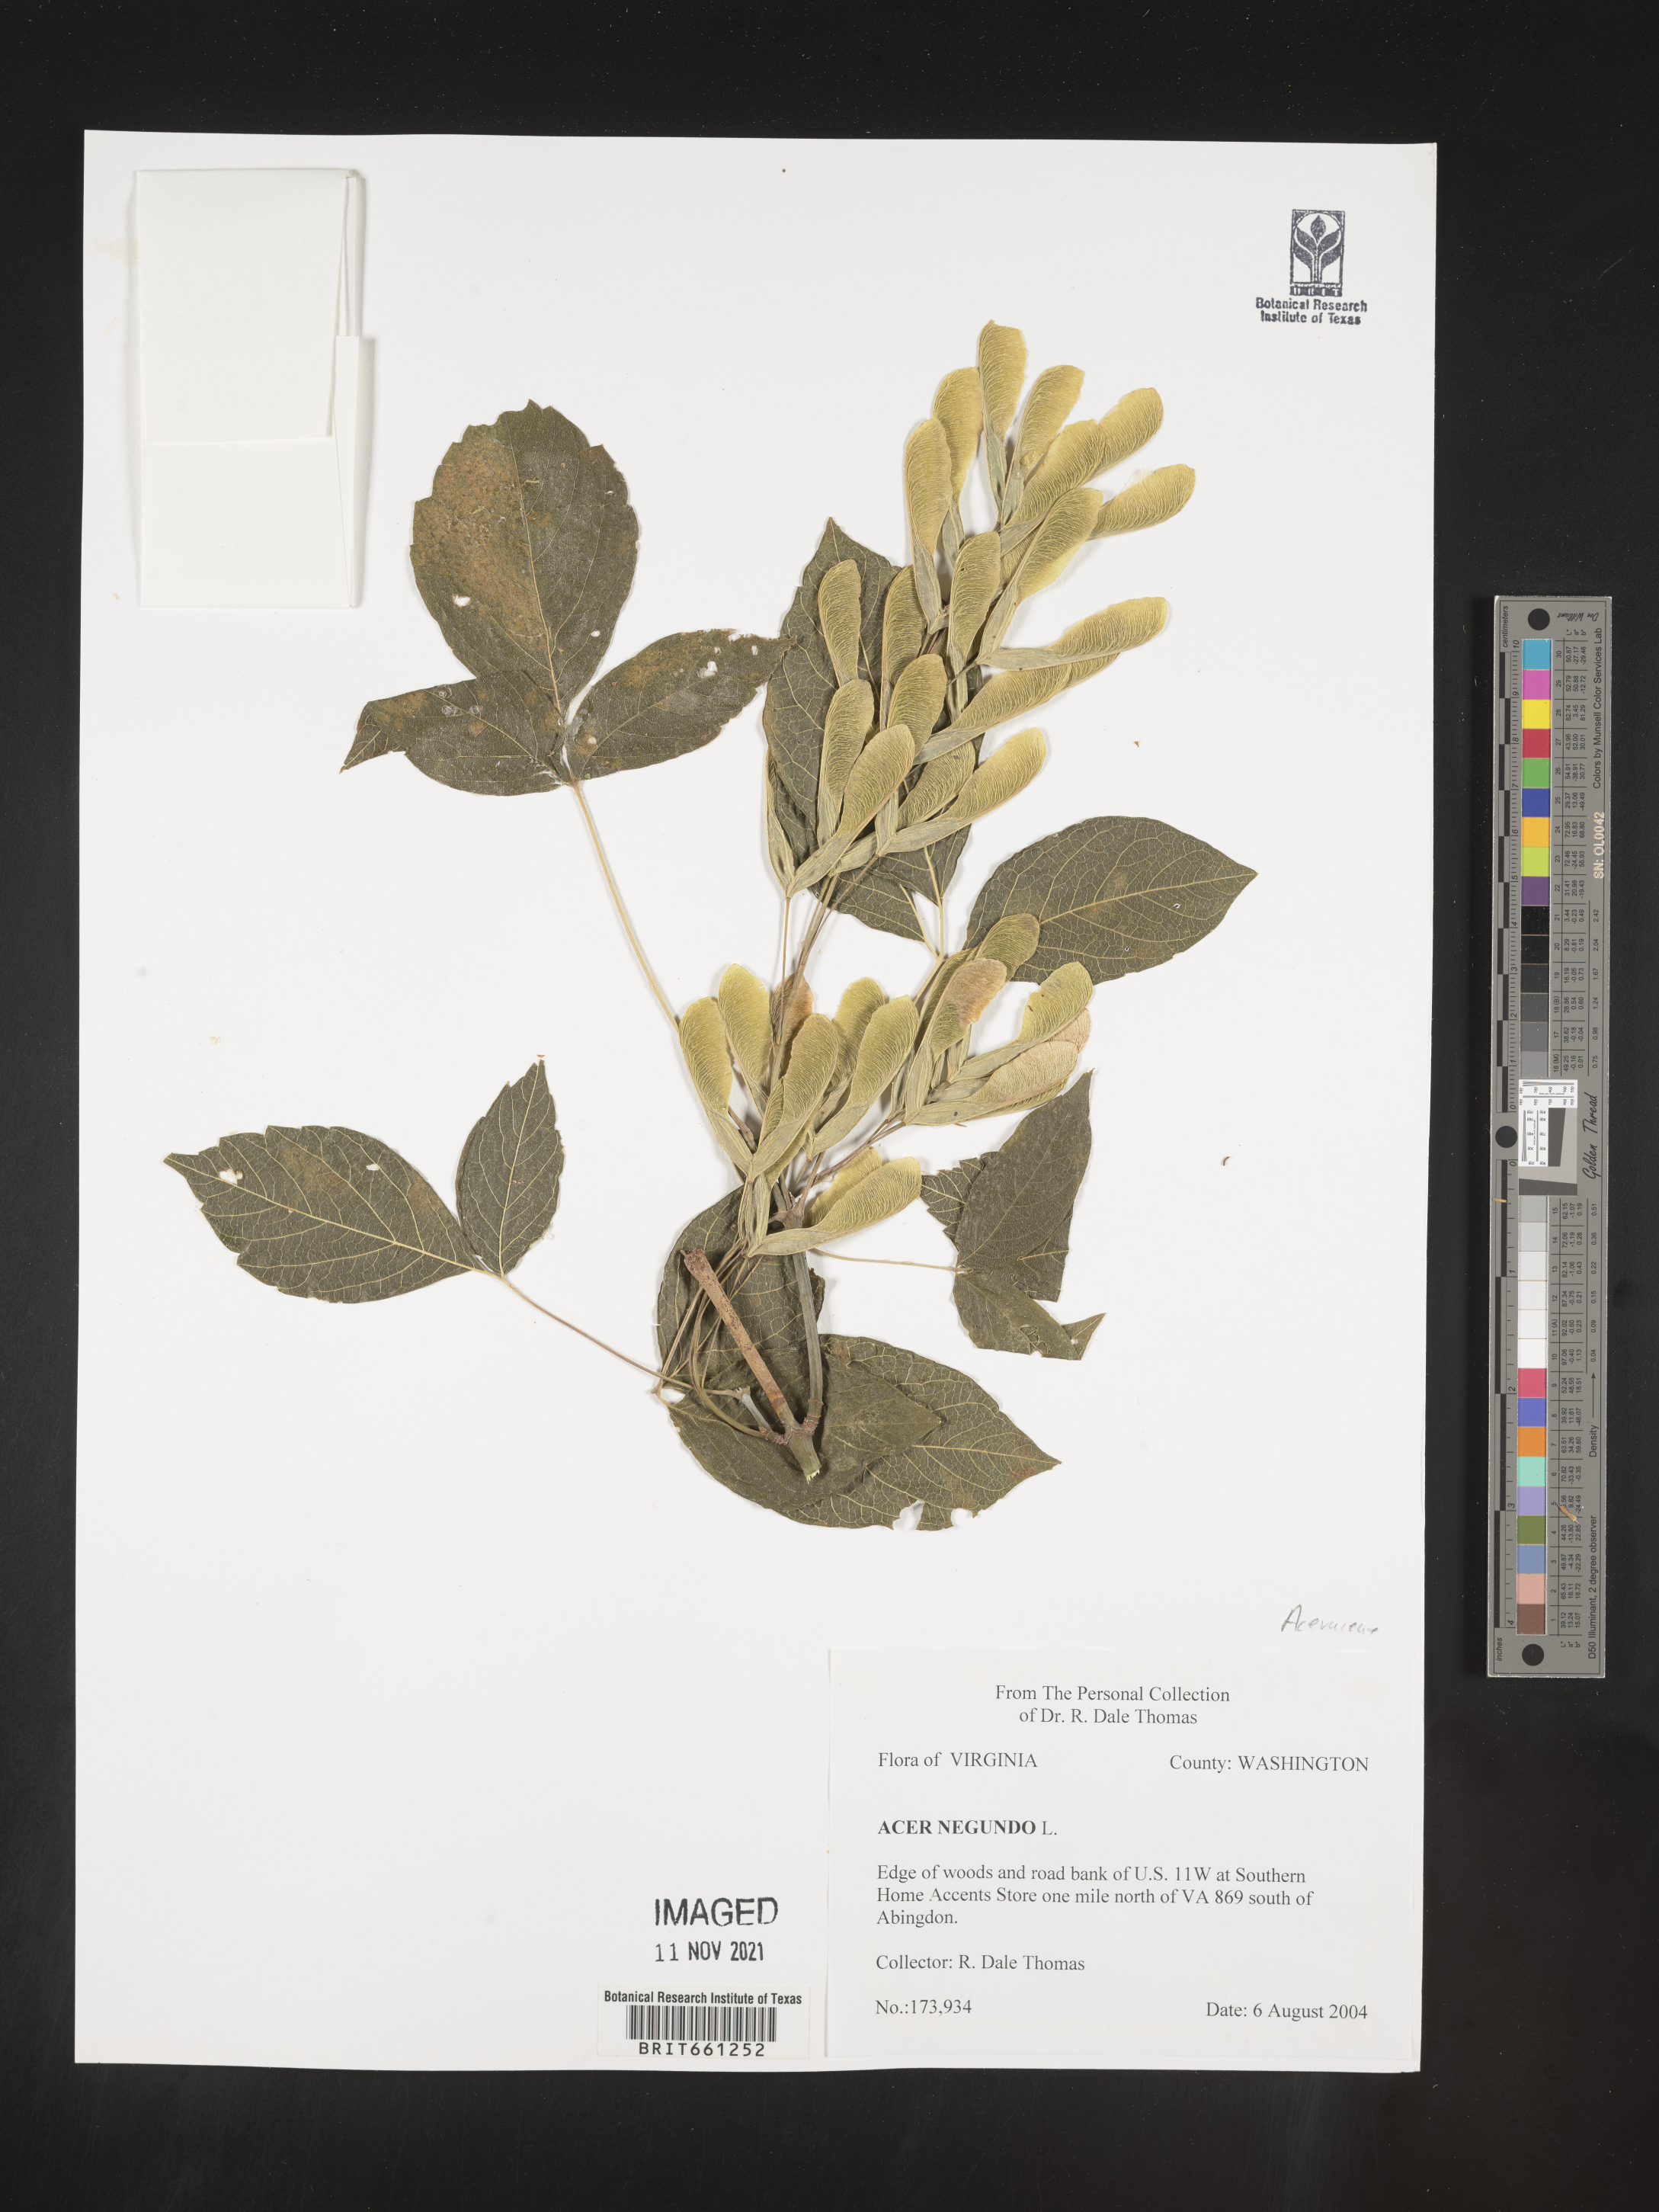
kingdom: Plantae
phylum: Tracheophyta
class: Magnoliopsida
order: Sapindales
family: Sapindaceae
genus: Acer
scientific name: Acer negundo
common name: Ashleaf maple
